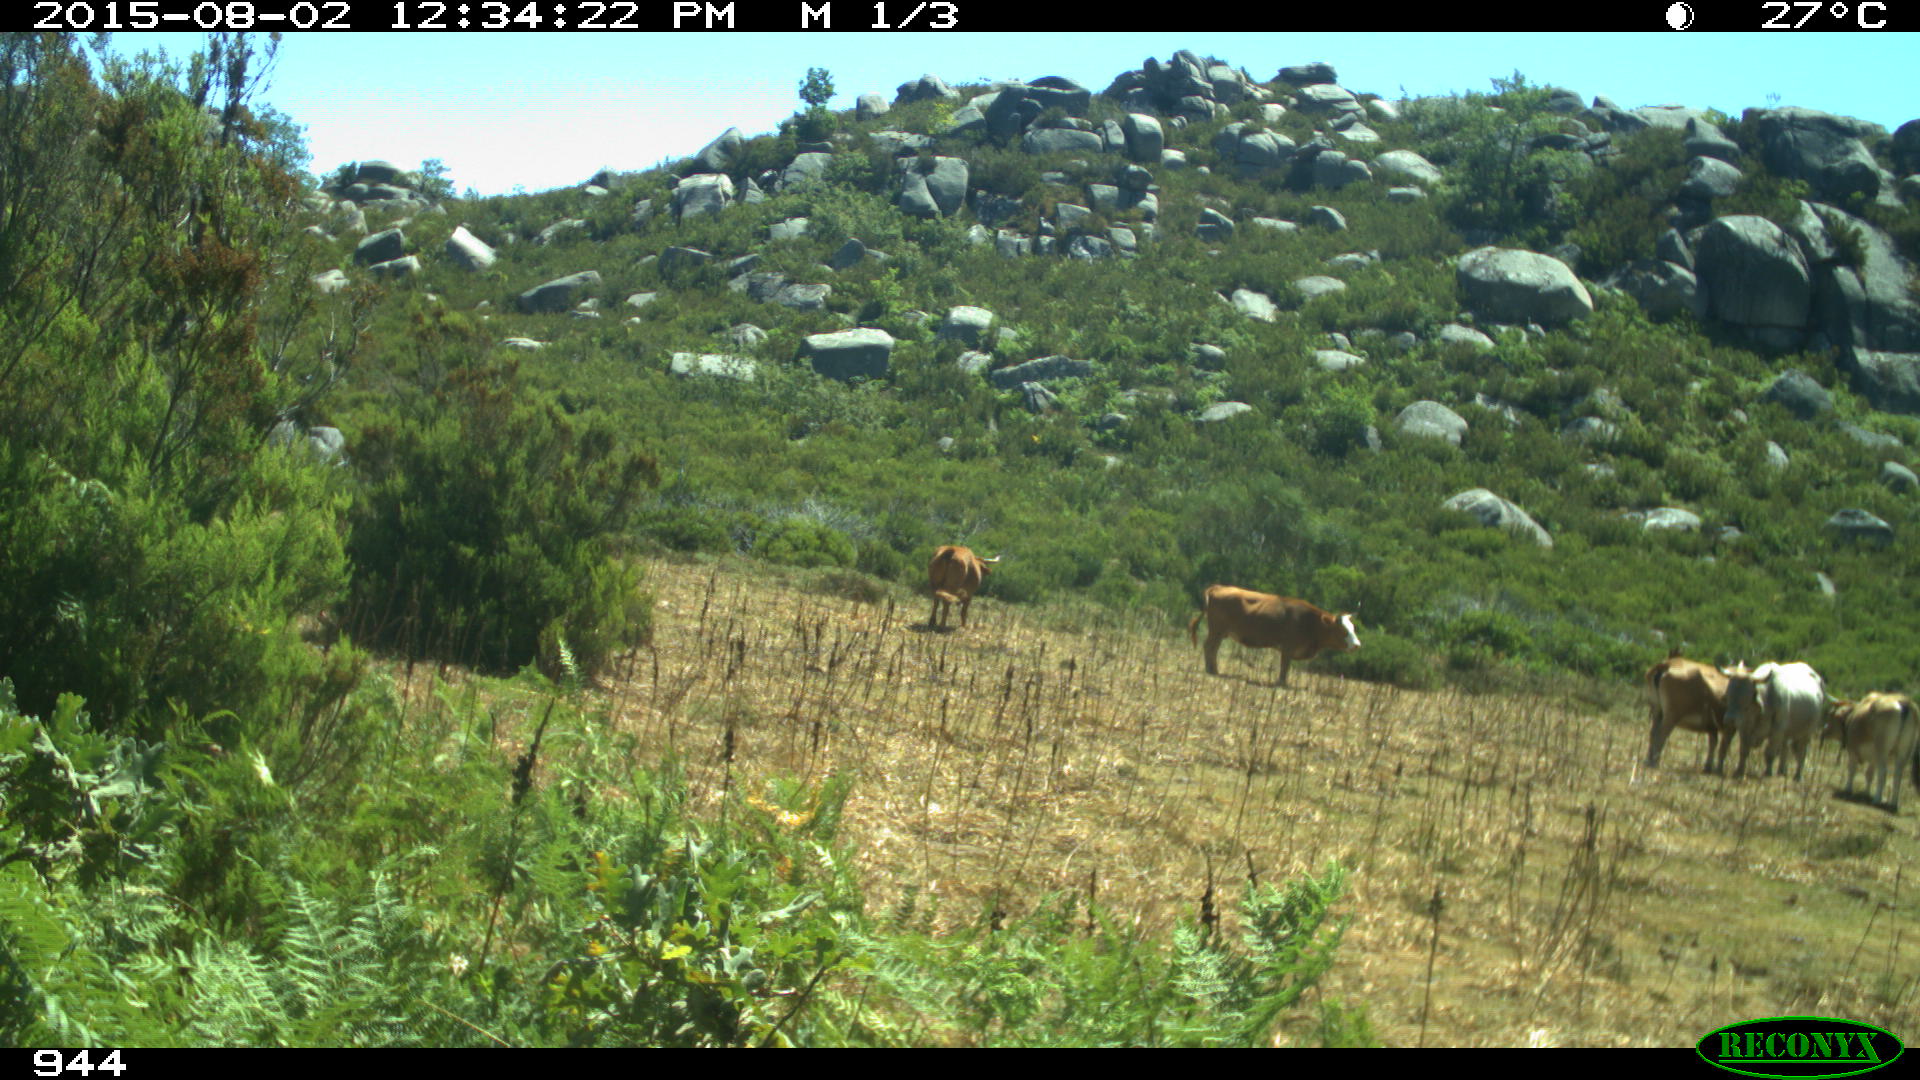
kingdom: Animalia
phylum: Chordata
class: Mammalia
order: Artiodactyla
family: Bovidae
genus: Bos
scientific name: Bos taurus
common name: Domesticated cattle
